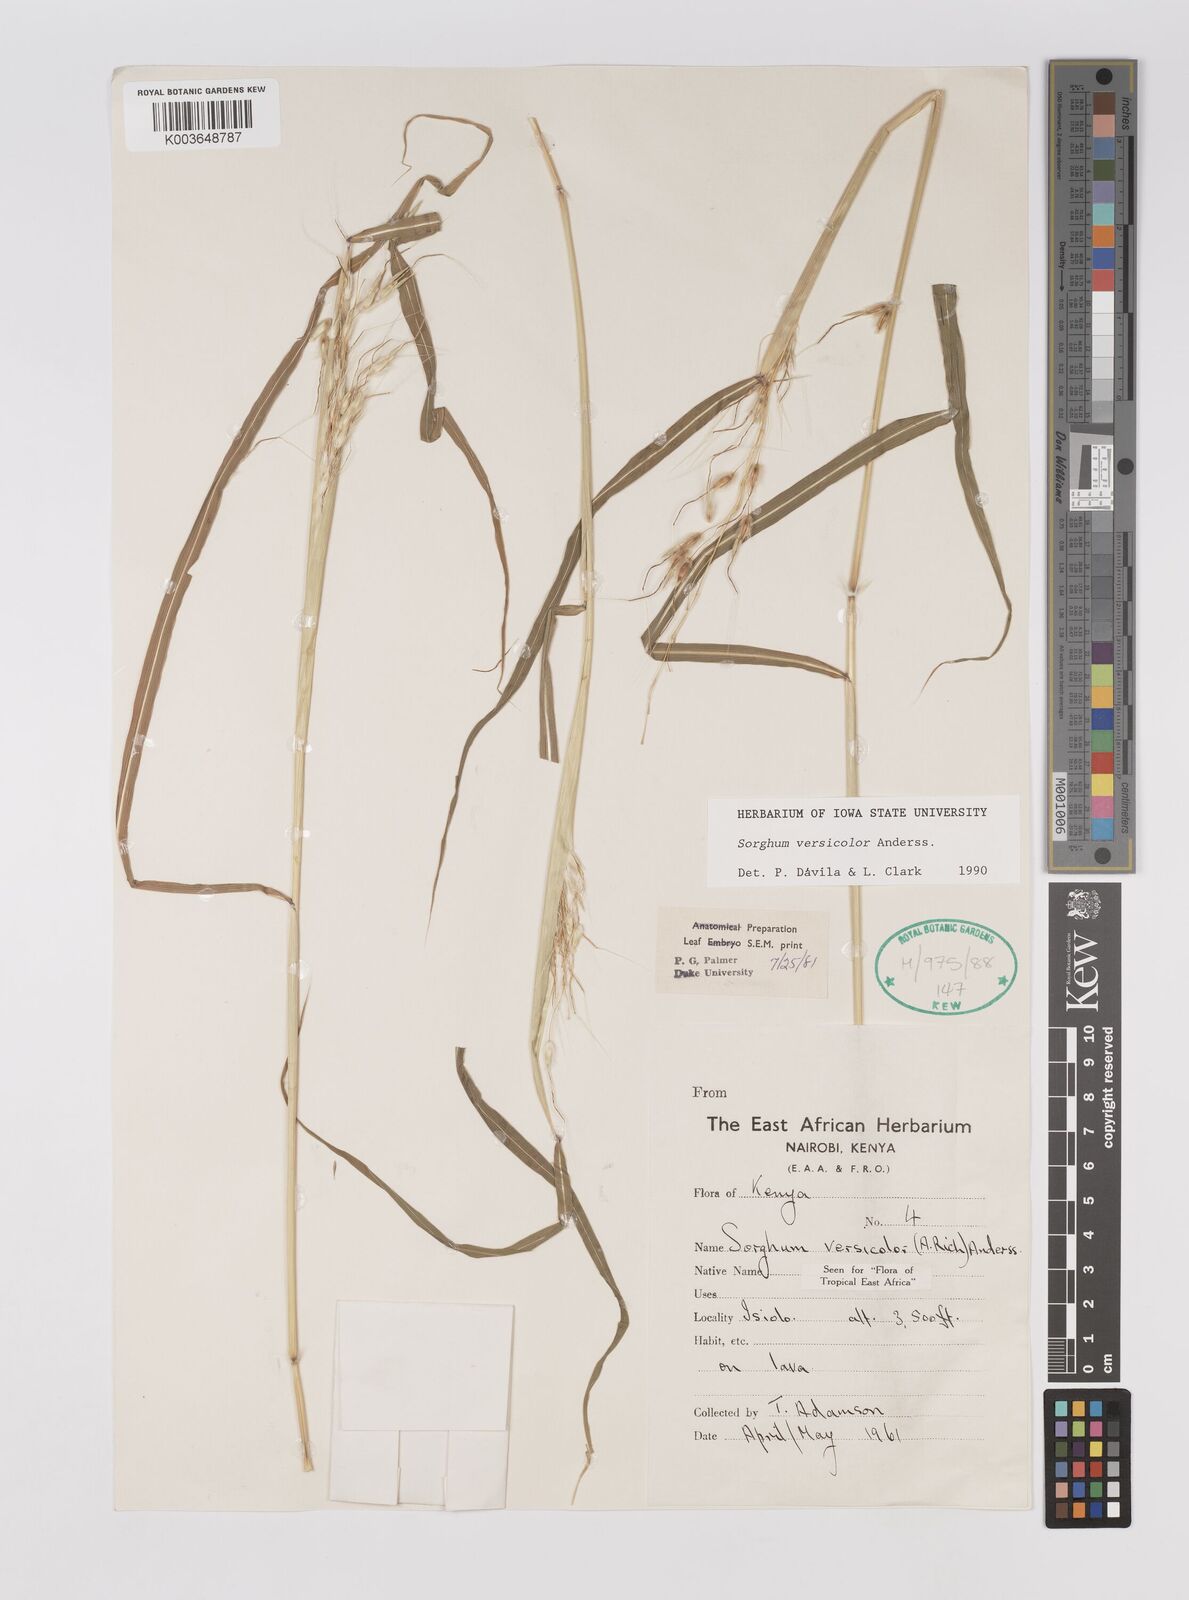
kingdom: Plantae
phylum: Tracheophyta
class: Liliopsida
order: Poales
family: Poaceae
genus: Sarga
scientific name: Sarga versicolor
